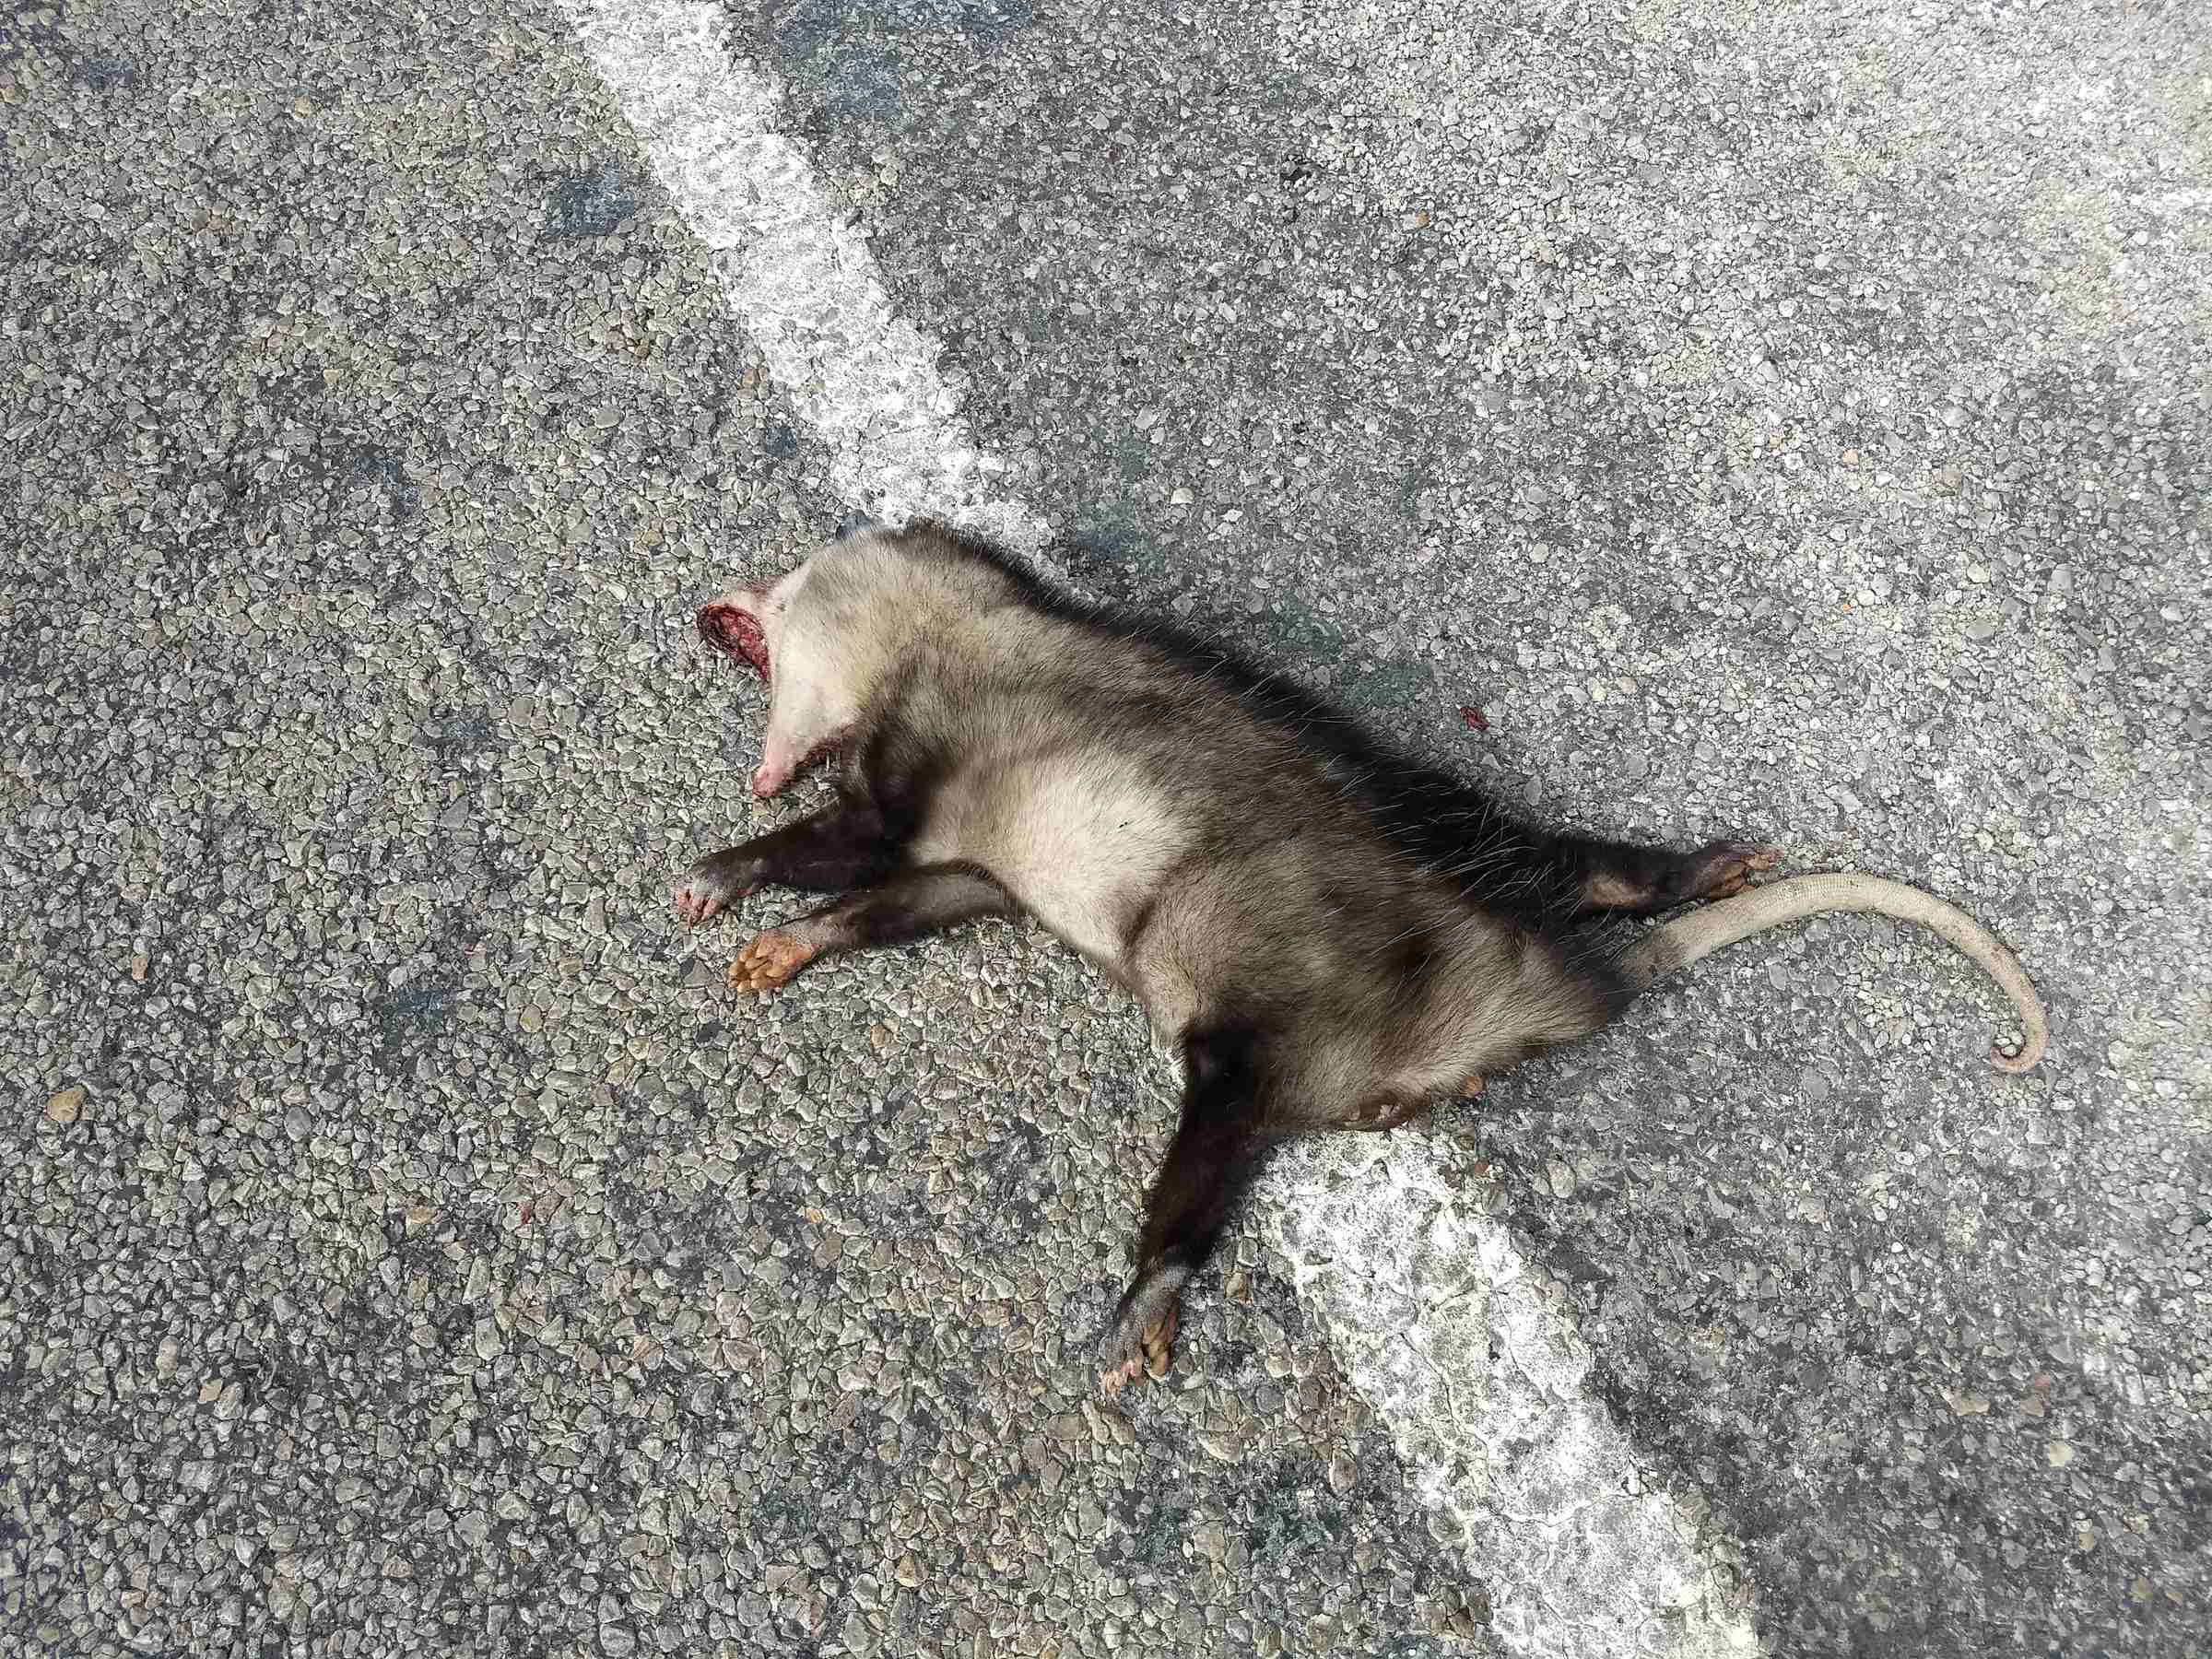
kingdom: Animalia
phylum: Chordata
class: Mammalia
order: Didelphimorphia
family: Didelphidae
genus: Didelphis
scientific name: Didelphis virginiana
